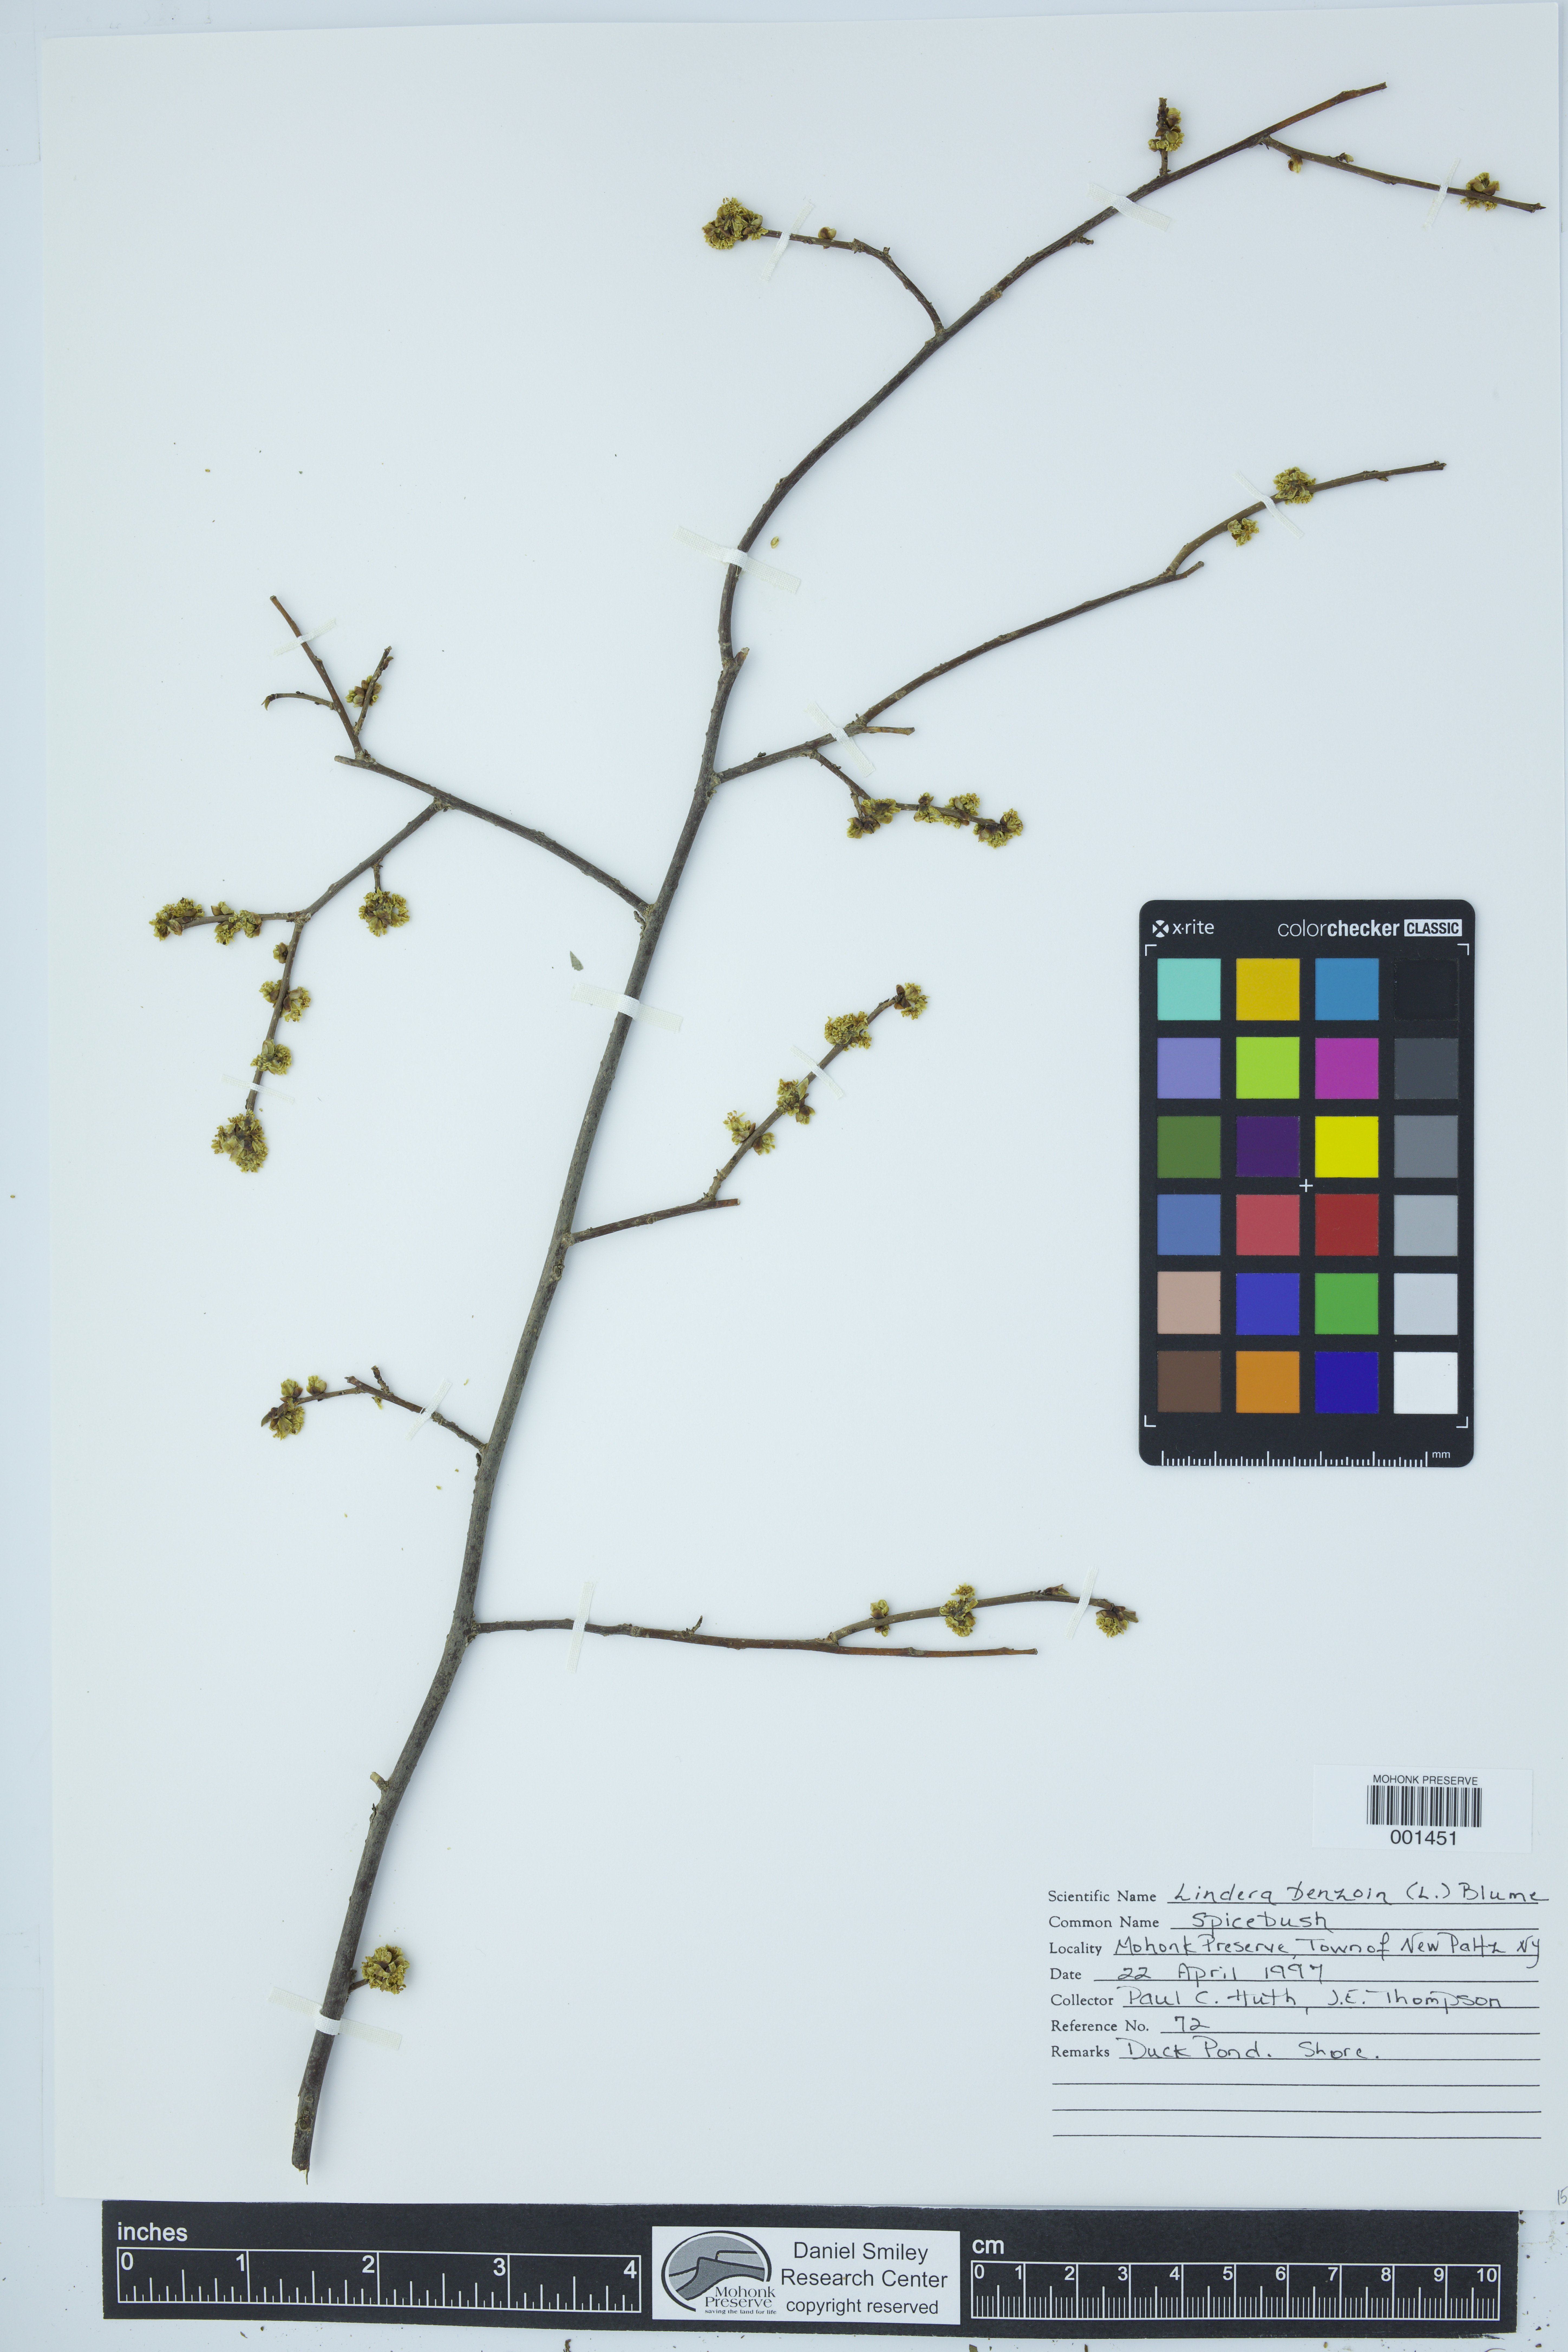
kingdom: Plantae
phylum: Tracheophyta
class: Magnoliopsida
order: Laurales
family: Lauraceae
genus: Lindera
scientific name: Lindera benzoin
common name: Spicebush
